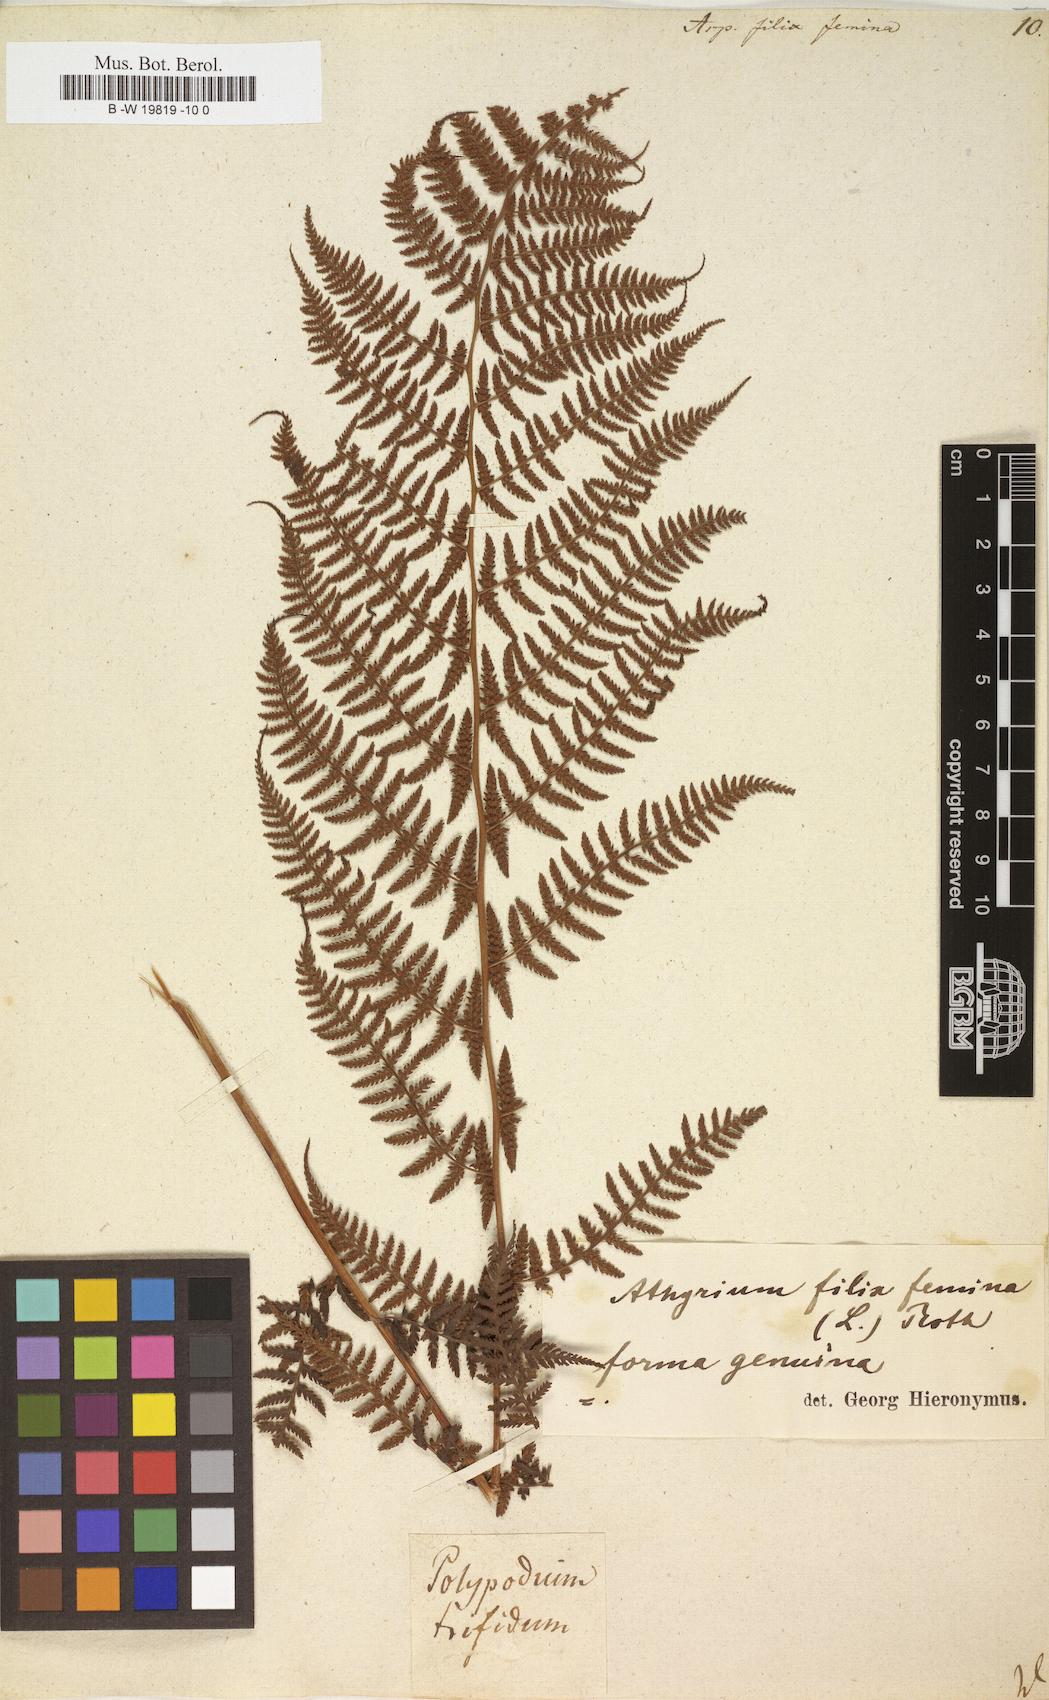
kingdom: Plantae
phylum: Tracheophyta
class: Polypodiopsida
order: Polypodiales
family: Athyriaceae
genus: Athyrium
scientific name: Athyrium filix-femina
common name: Lady fern
